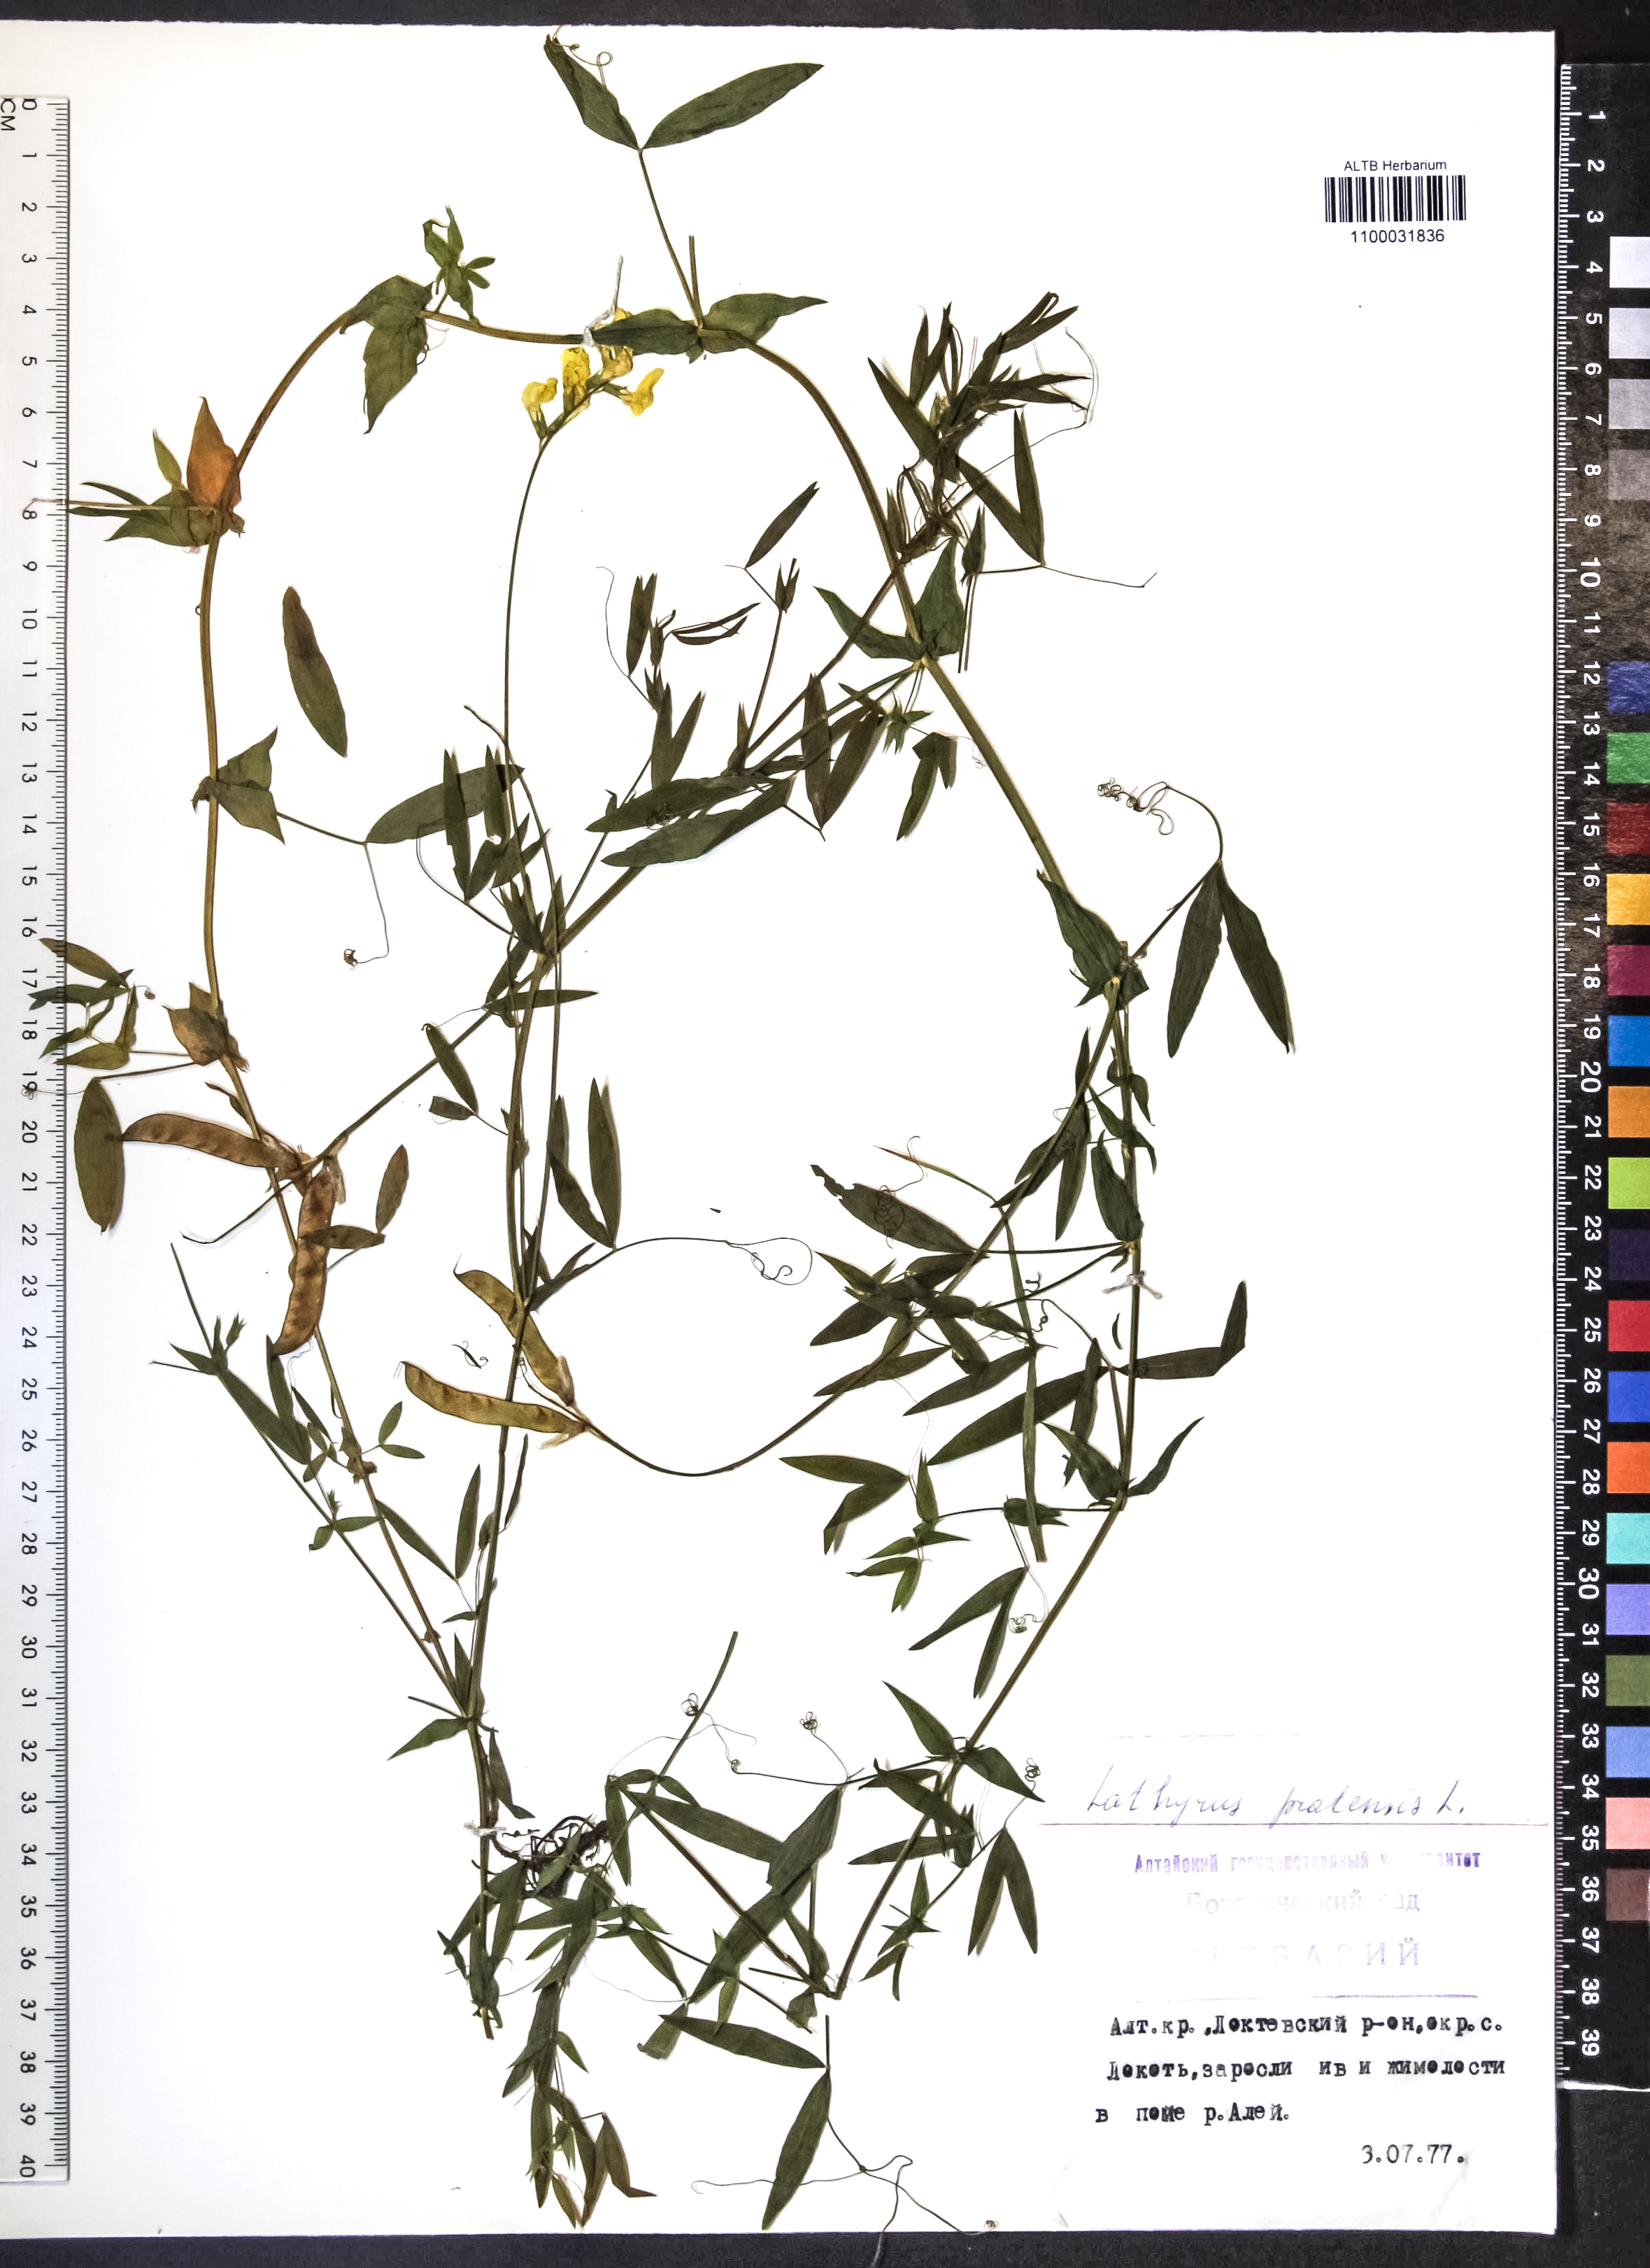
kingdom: Plantae
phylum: Tracheophyta
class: Magnoliopsida
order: Fabales
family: Fabaceae
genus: Lathyrus
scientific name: Lathyrus pratensis
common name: Meadow vetchling
